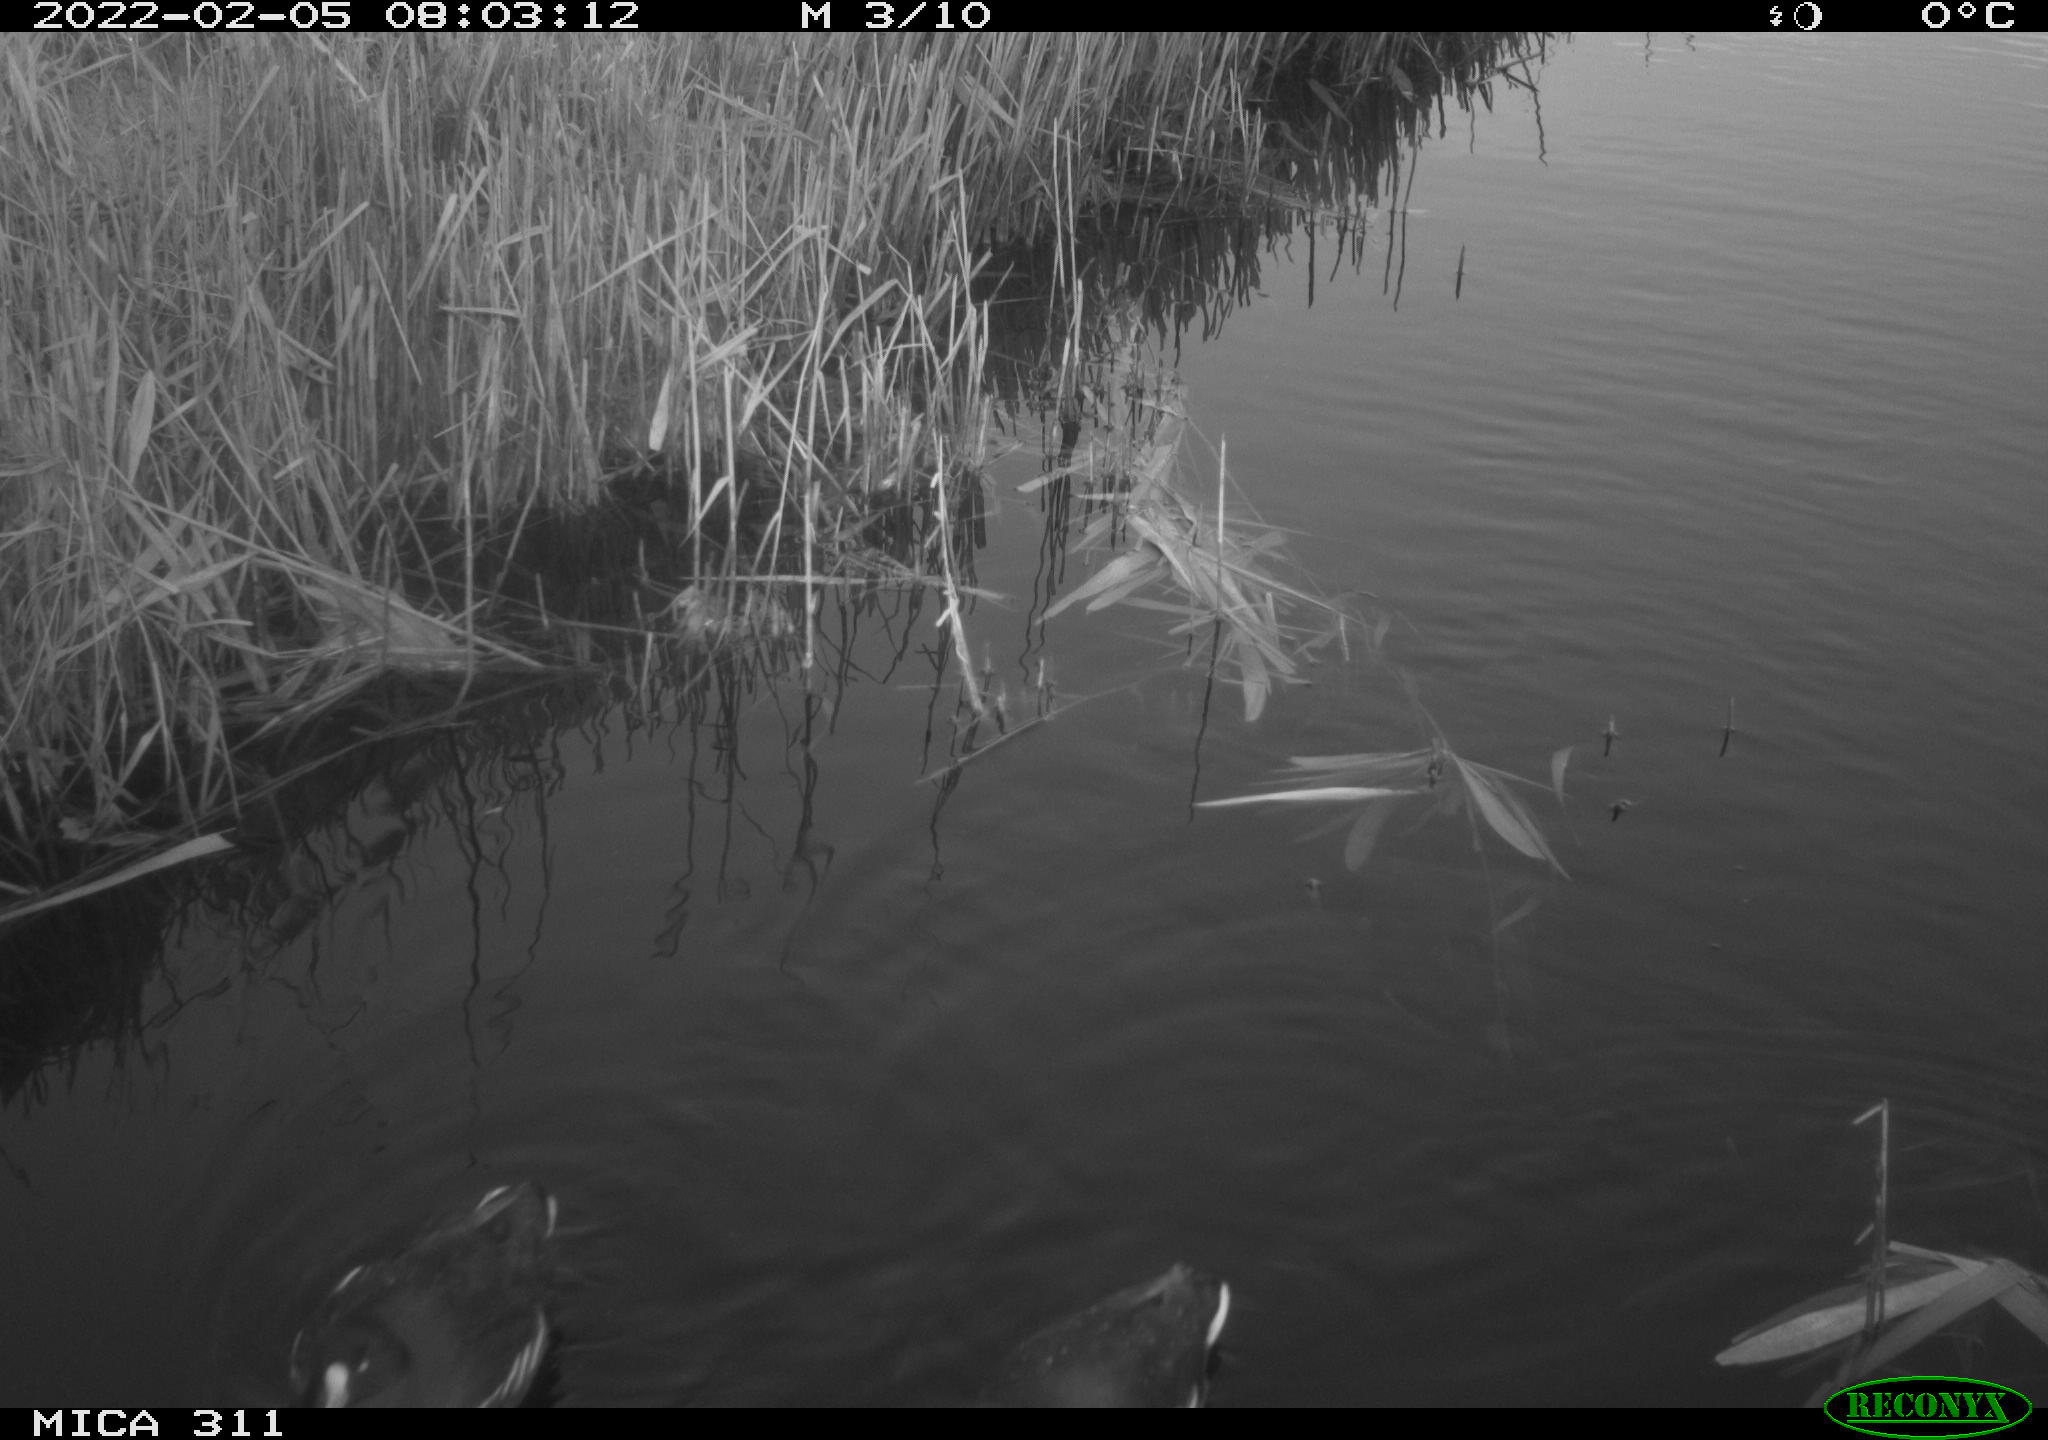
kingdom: Animalia
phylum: Chordata
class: Aves
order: Gruiformes
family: Rallidae
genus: Gallinula
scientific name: Gallinula chloropus
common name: Common moorhen
